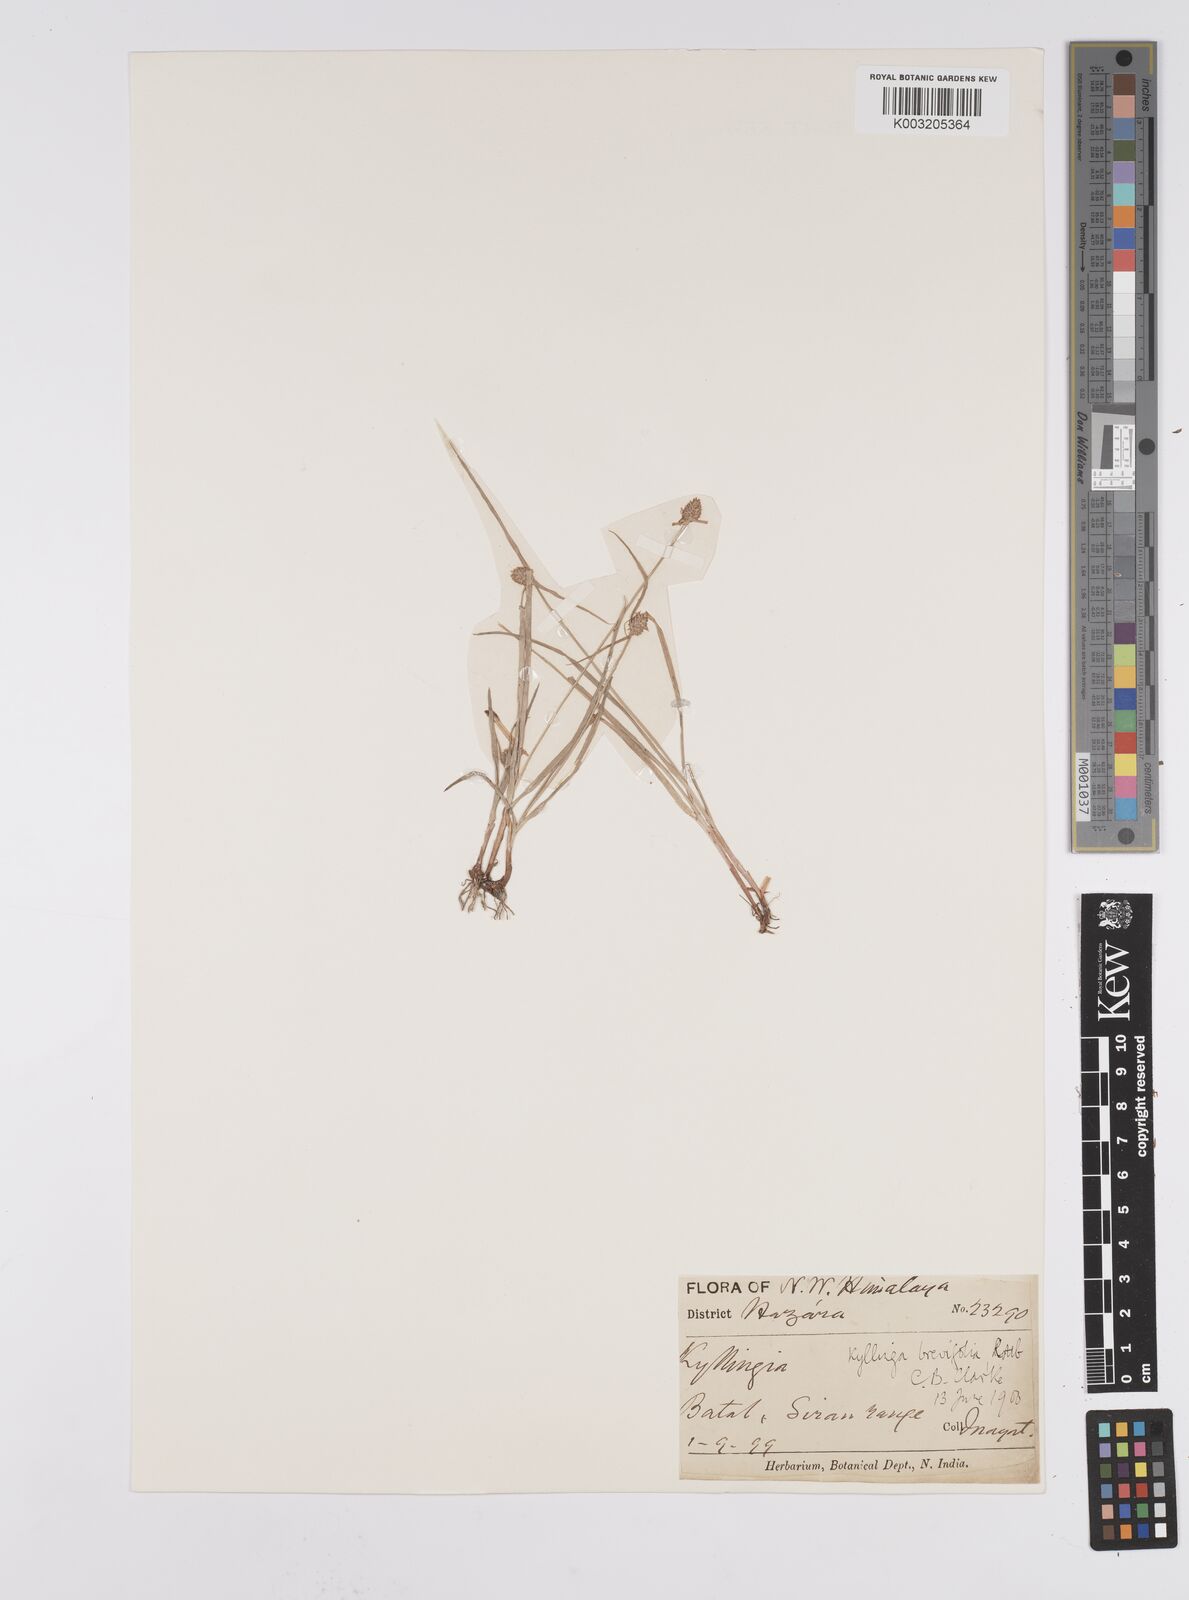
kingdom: Plantae
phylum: Tracheophyta
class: Liliopsida
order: Poales
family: Cyperaceae
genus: Cyperus
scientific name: Cyperus brevifolius
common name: Globe kyllinga
